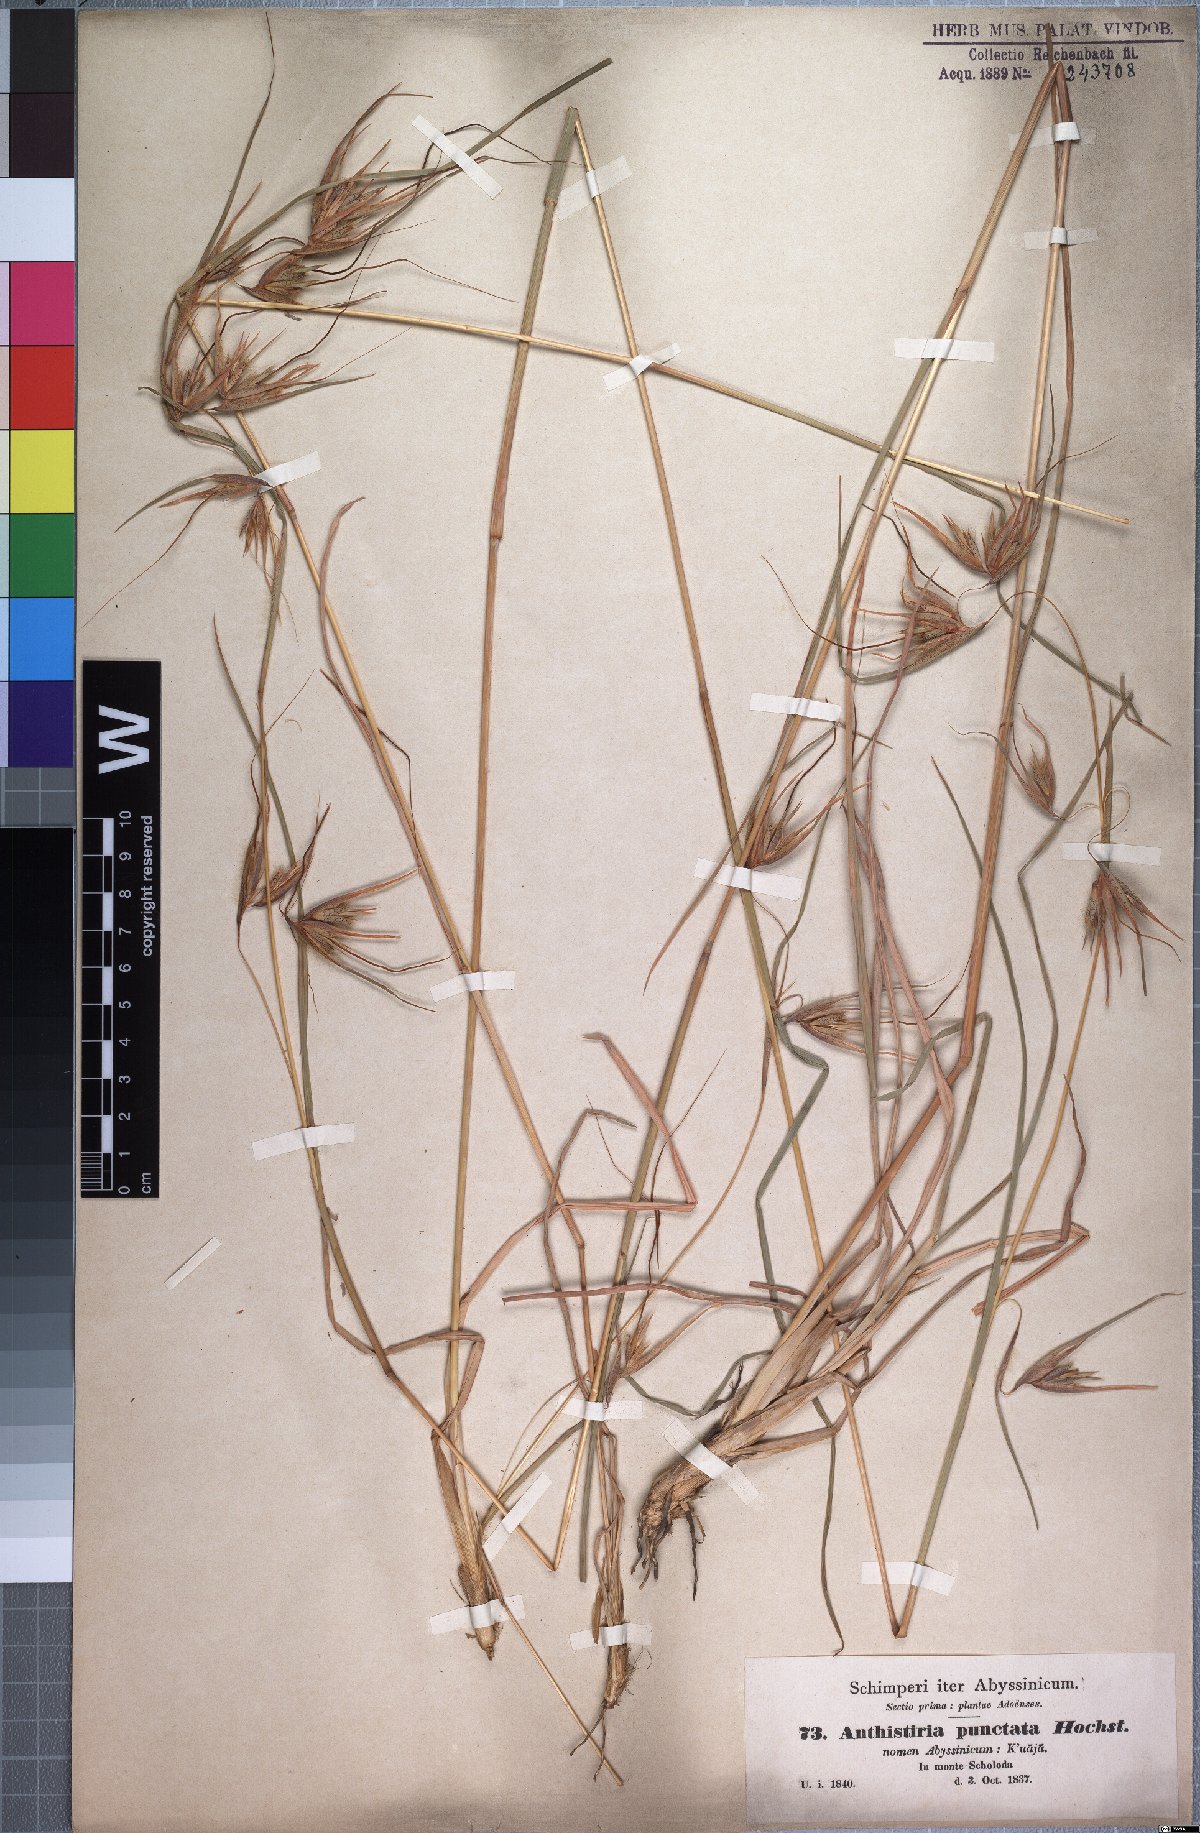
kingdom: Plantae
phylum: Tracheophyta
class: Liliopsida
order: Poales
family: Poaceae
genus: Themeda
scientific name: Themeda triandra
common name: Kangaroo grass
